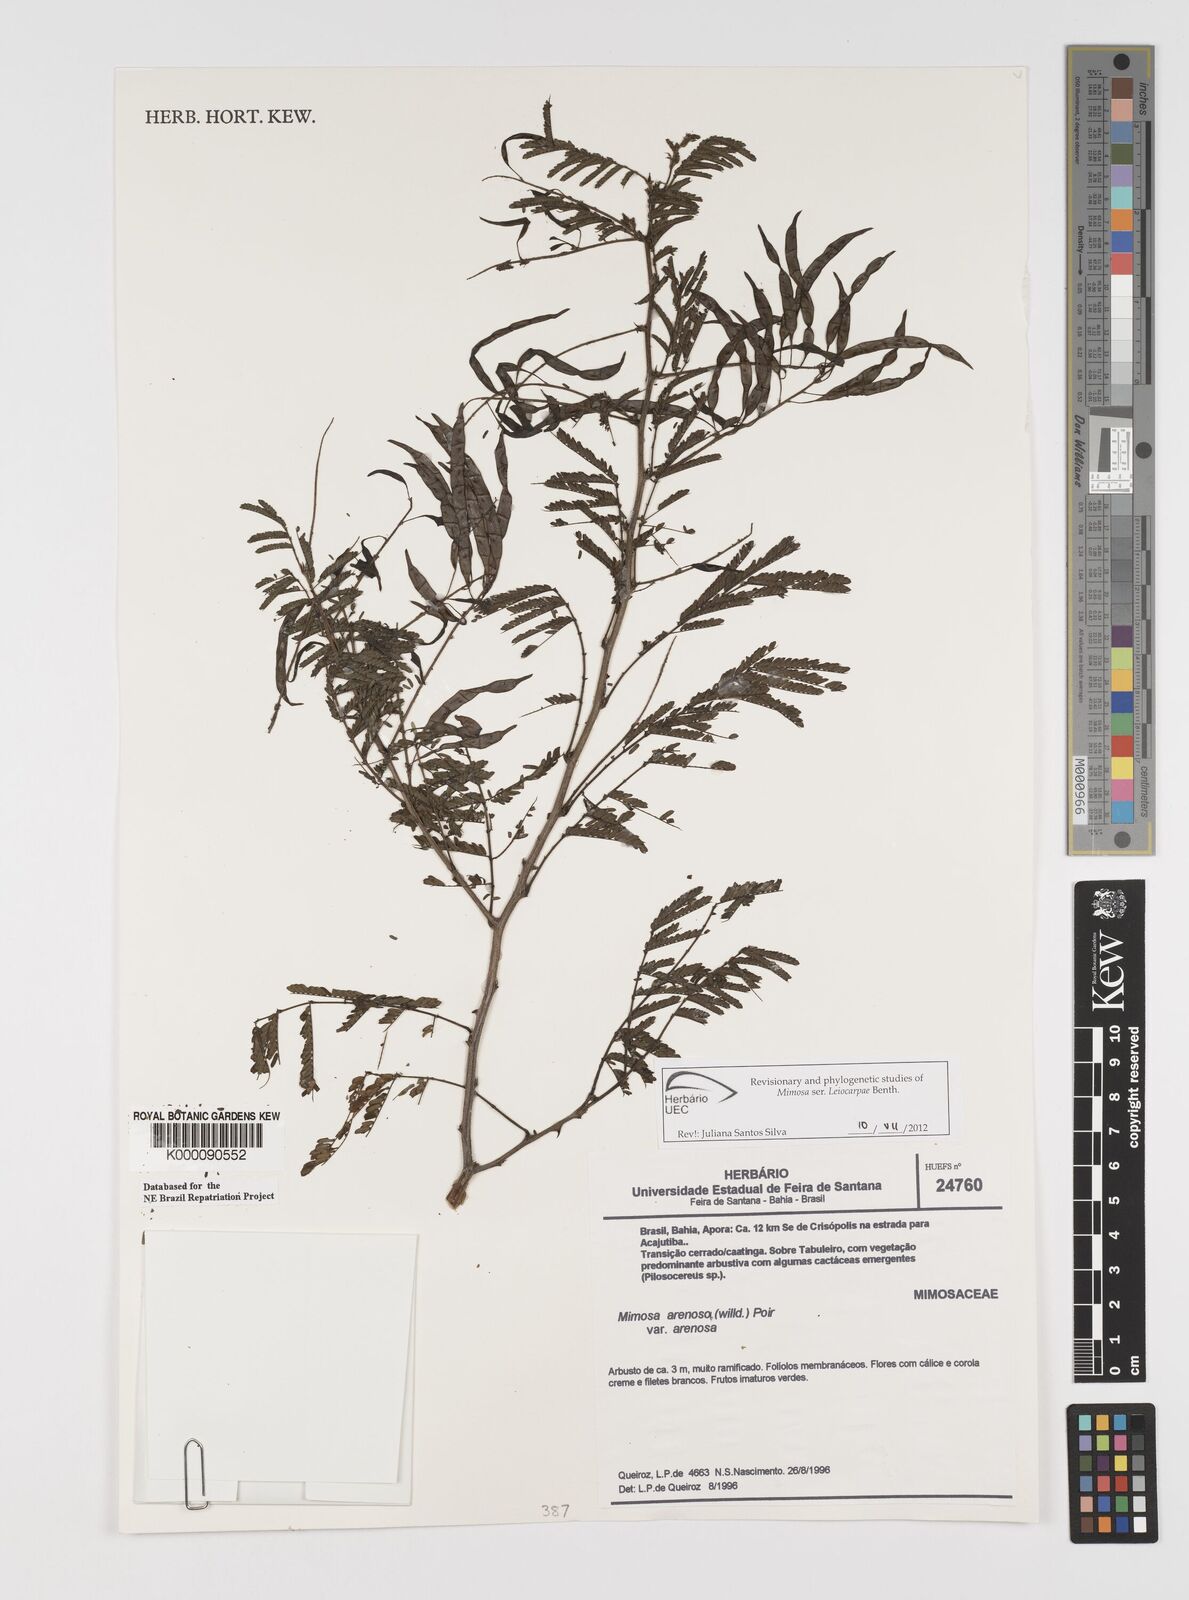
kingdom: Plantae
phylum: Tracheophyta
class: Magnoliopsida
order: Fabales
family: Fabaceae
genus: Mimosa
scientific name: Mimosa arenosa
